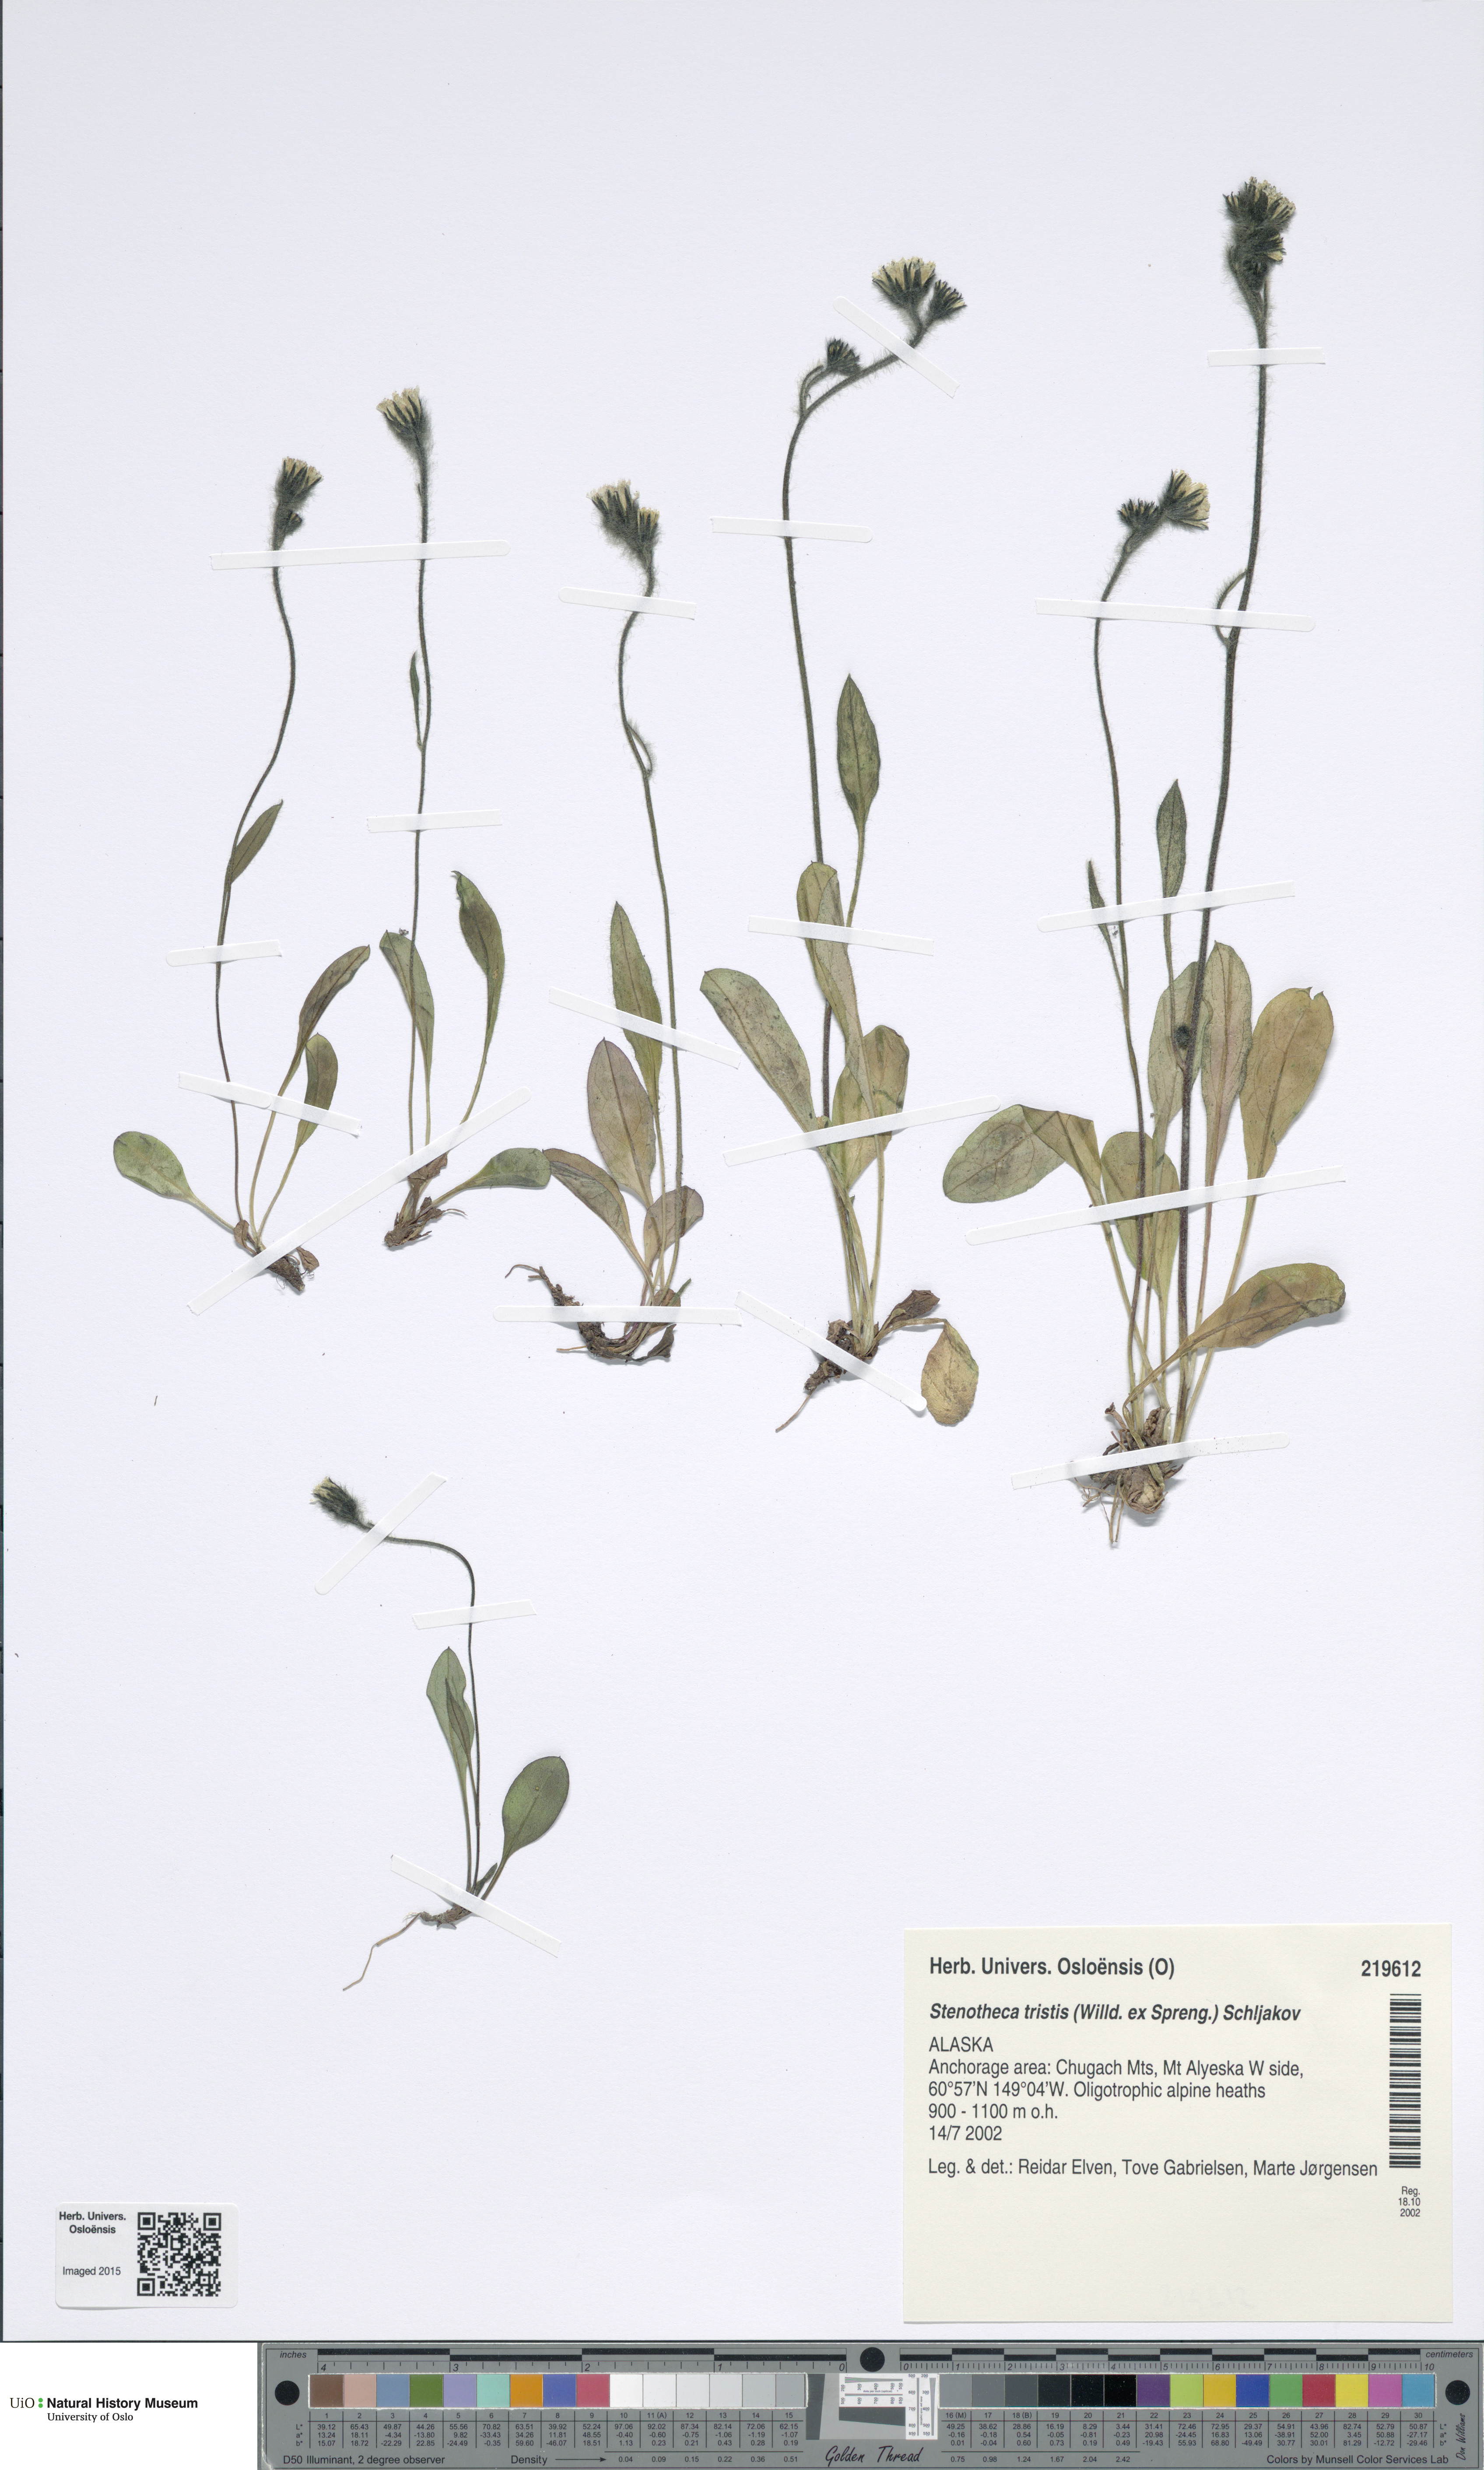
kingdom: Plantae
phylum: Tracheophyta
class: Magnoliopsida
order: Asterales
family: Asteraceae
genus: Hieracium
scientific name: Hieracium triste
